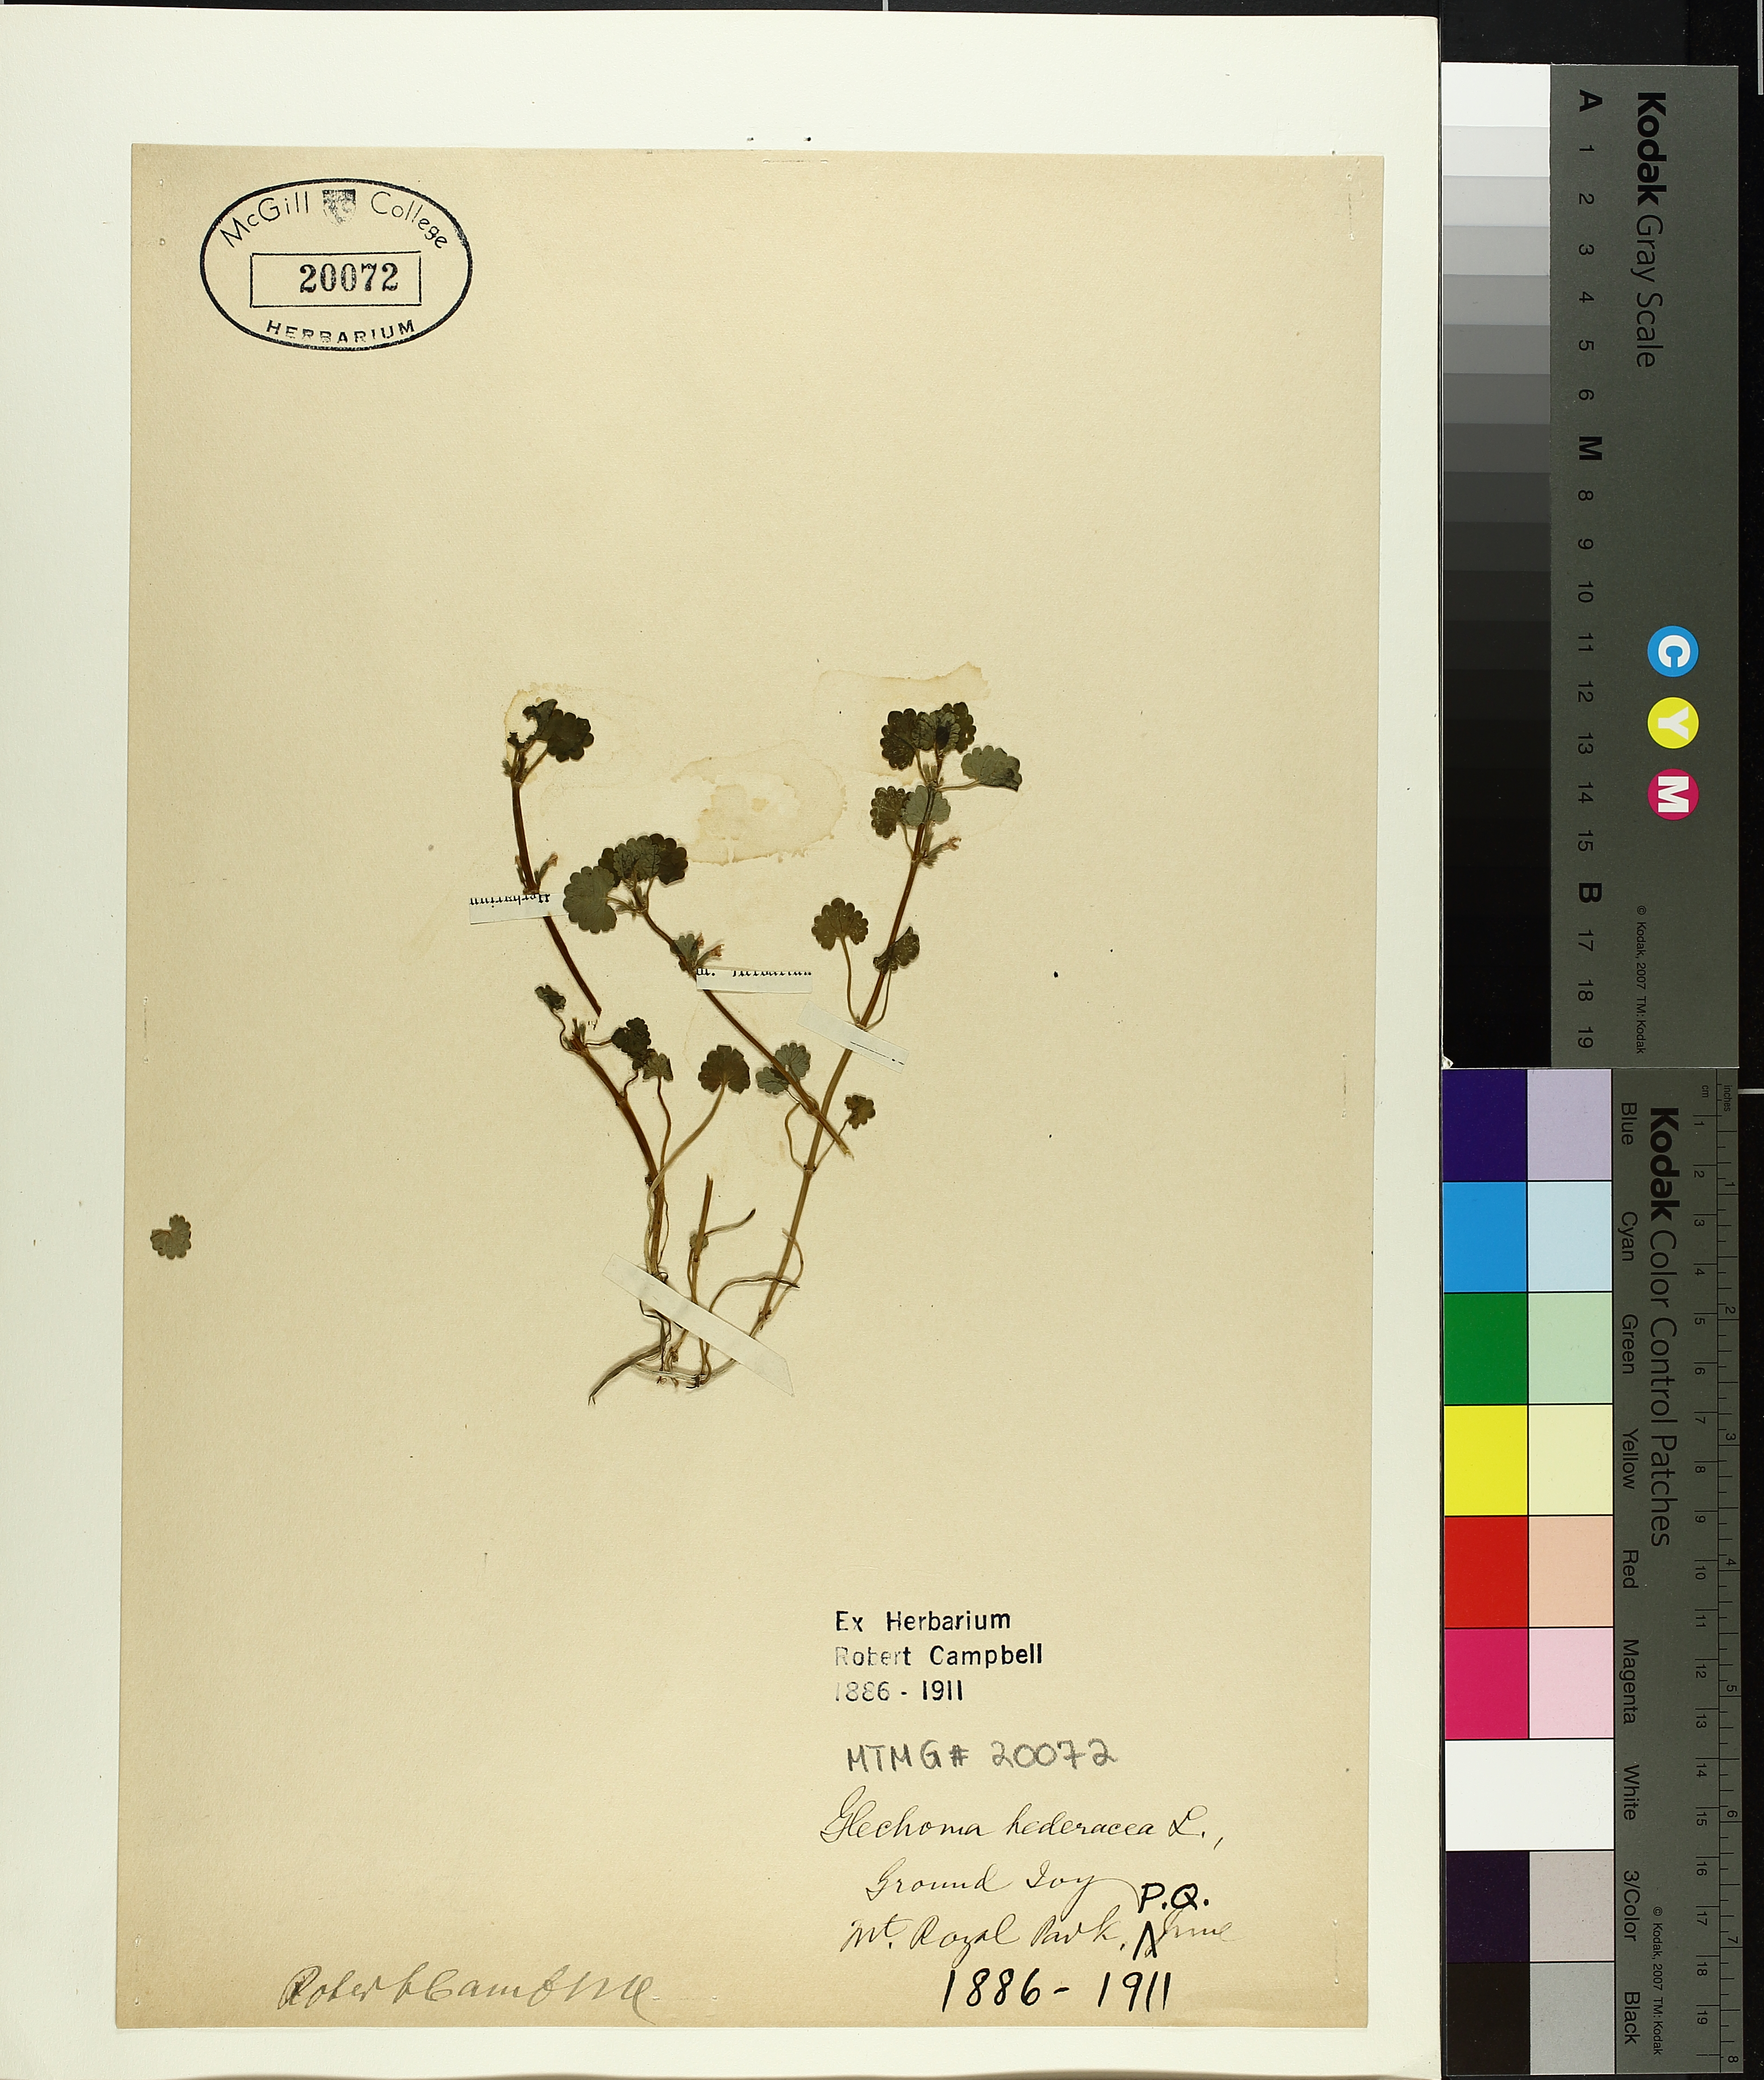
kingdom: Plantae
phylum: Tracheophyta
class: Magnoliopsida
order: Lamiales
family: Lamiaceae
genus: Glechoma
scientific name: Glechoma hederacea
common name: Ground ivy
